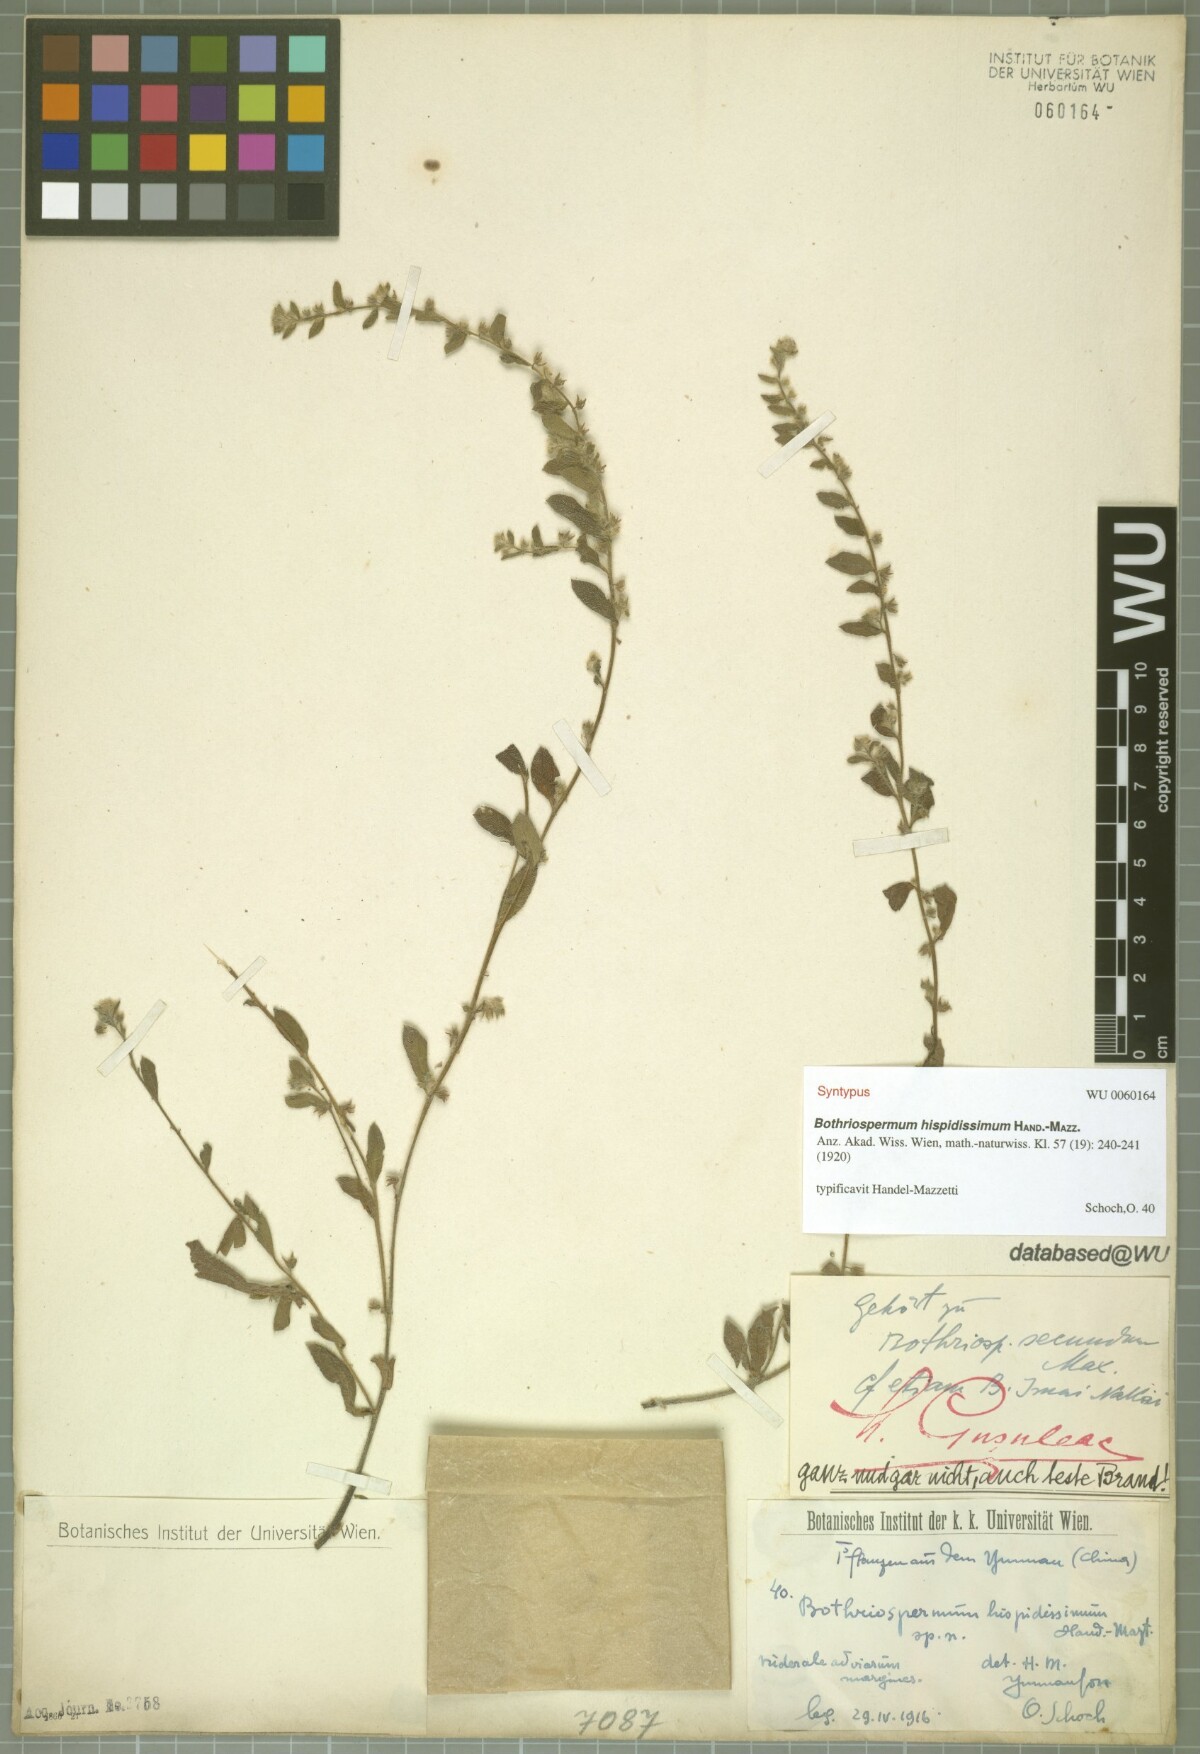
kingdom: Plantae
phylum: Tracheophyta
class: Magnoliopsida
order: Boraginales
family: Boraginaceae
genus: Bothriospermum
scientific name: Bothriospermum hispidissimum
